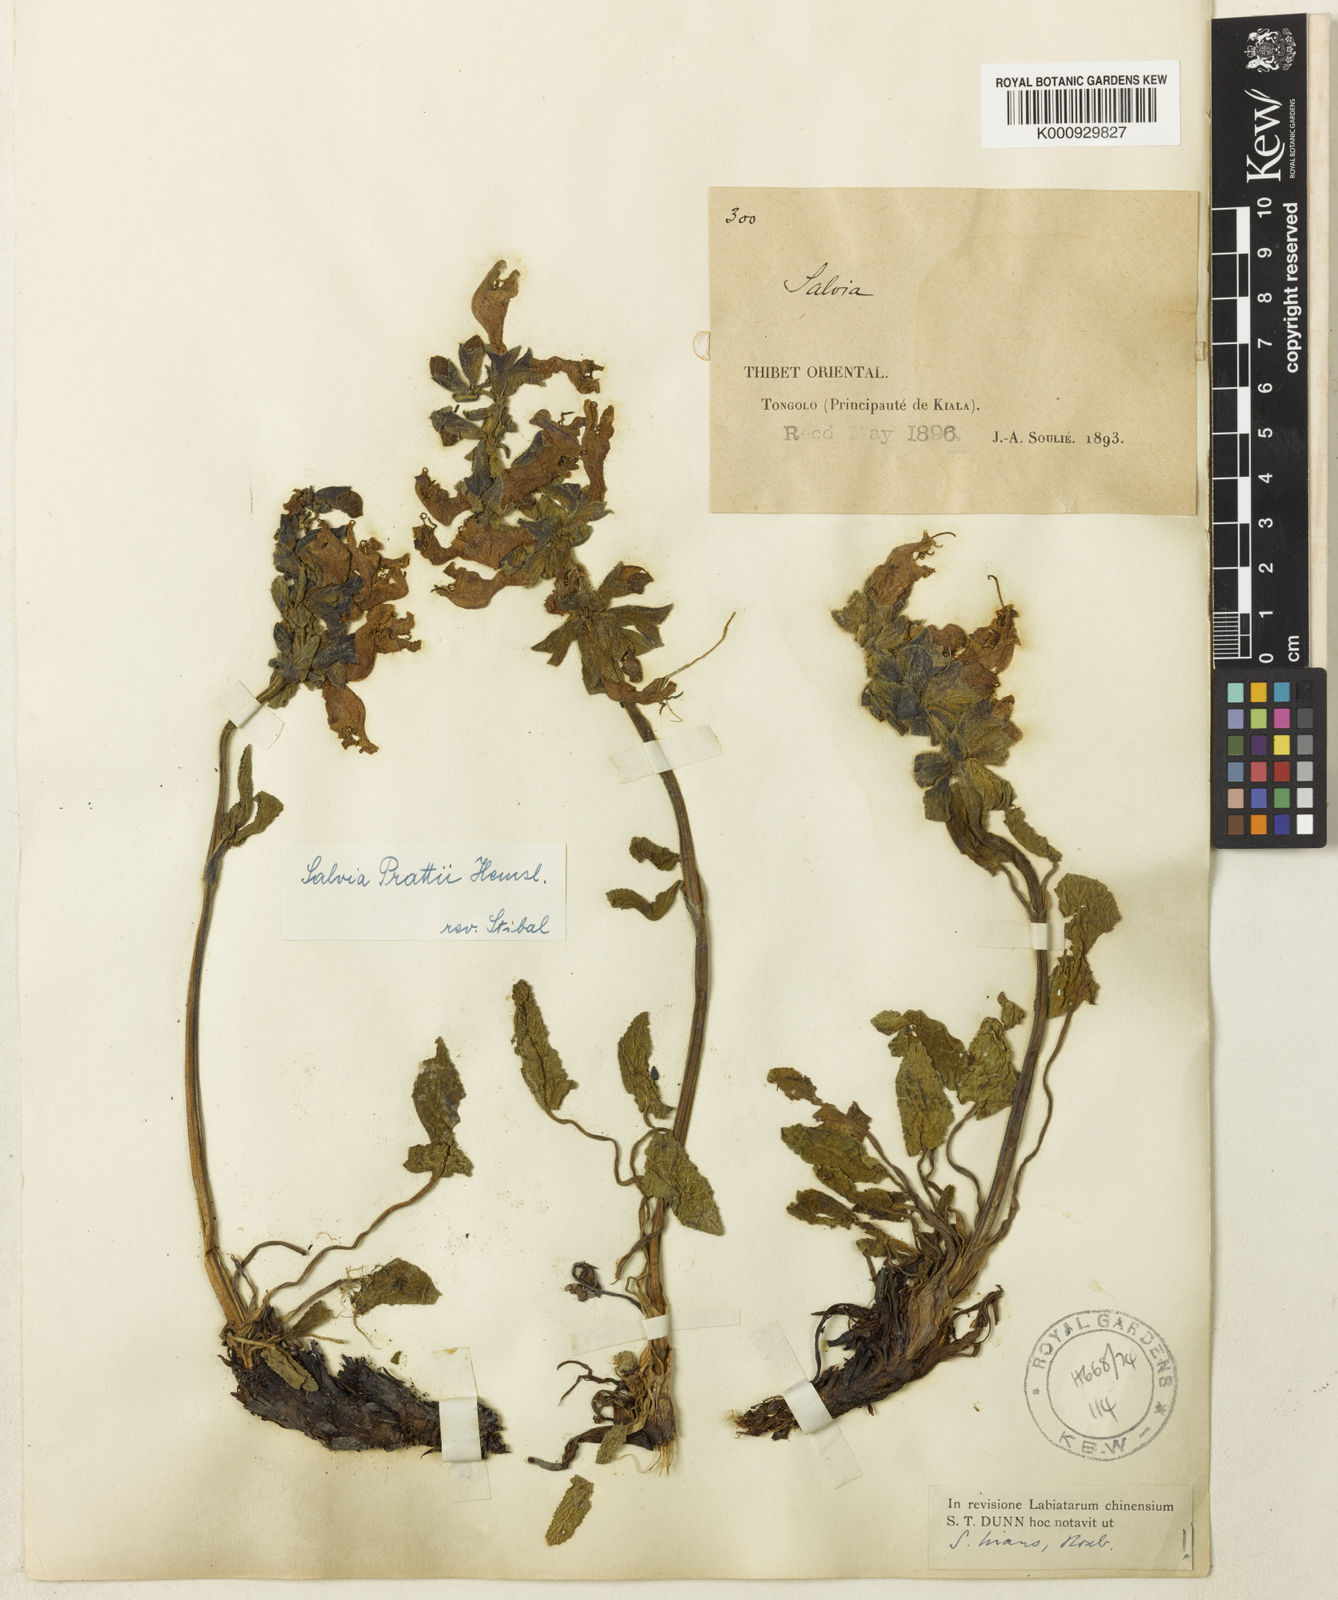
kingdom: Plantae
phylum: Tracheophyta
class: Magnoliopsida
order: Lamiales
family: Lamiaceae
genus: Salvia
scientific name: Salvia prattii
